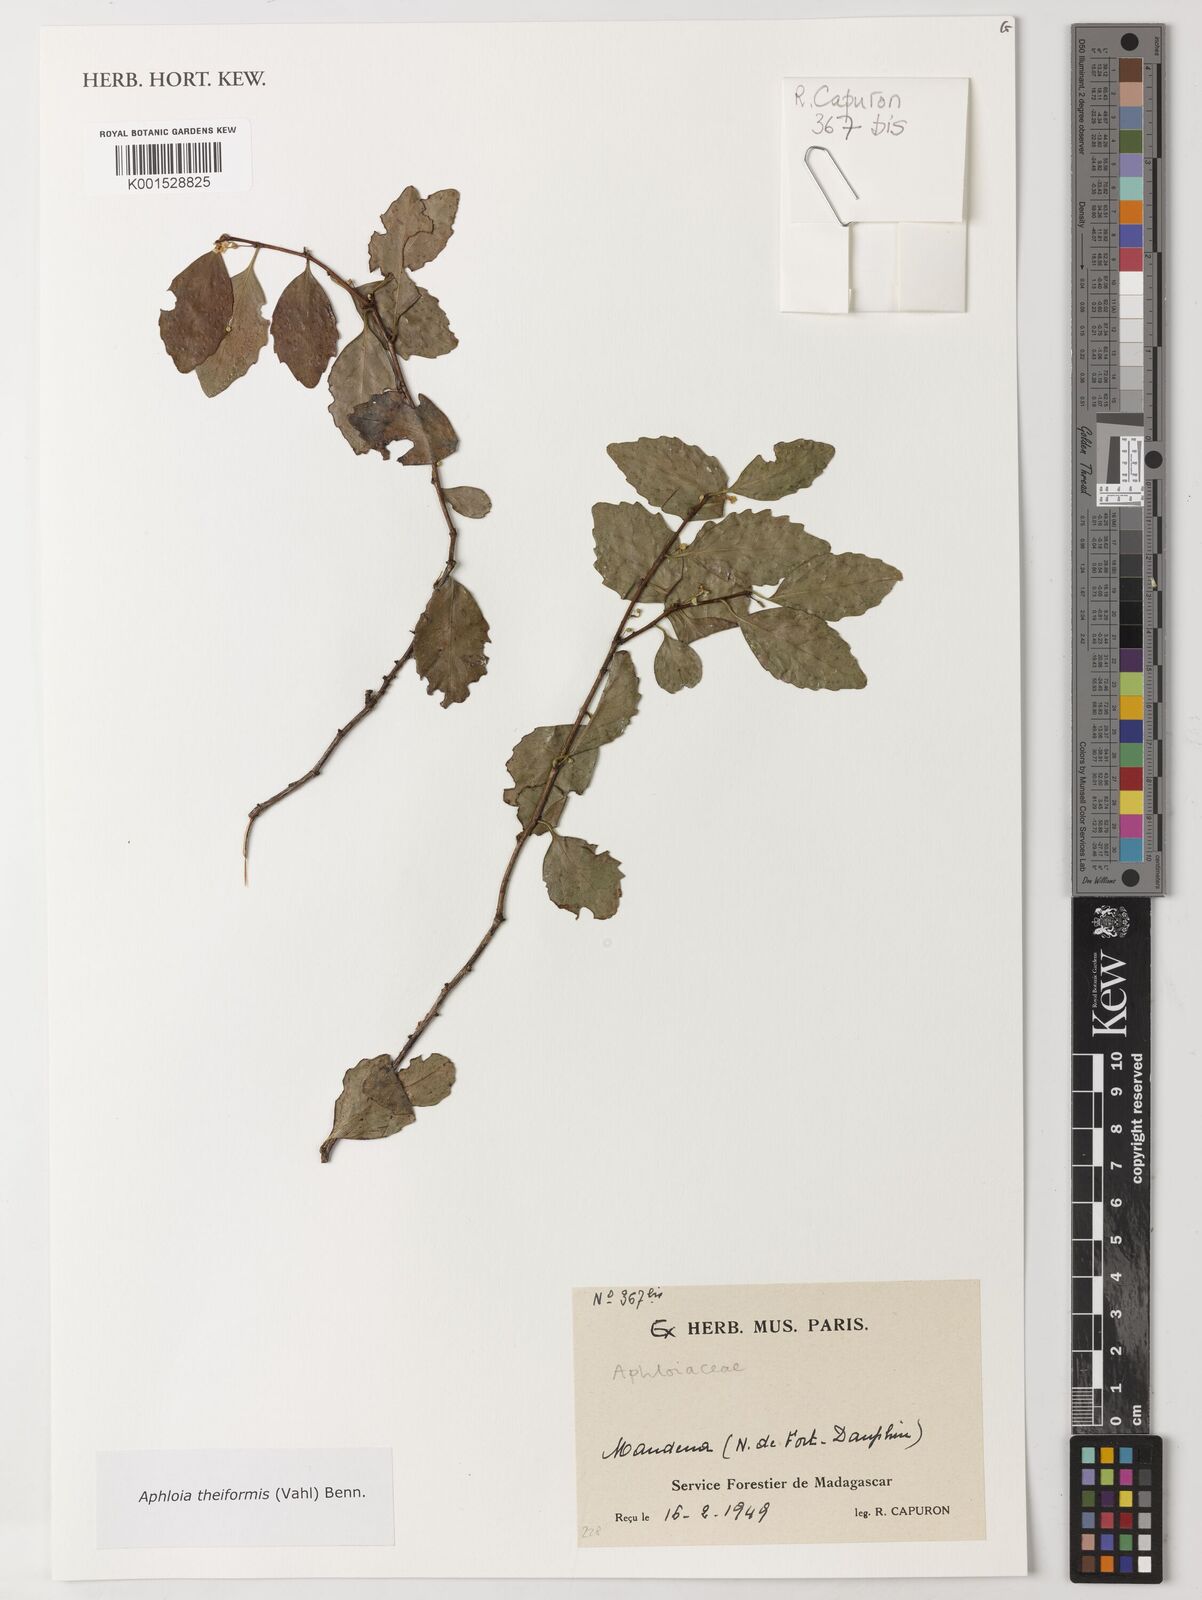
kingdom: Plantae
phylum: Tracheophyta
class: Magnoliopsida
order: Crossosomatales
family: Aphloiaceae
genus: Aphloia
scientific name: Aphloia theiformis
